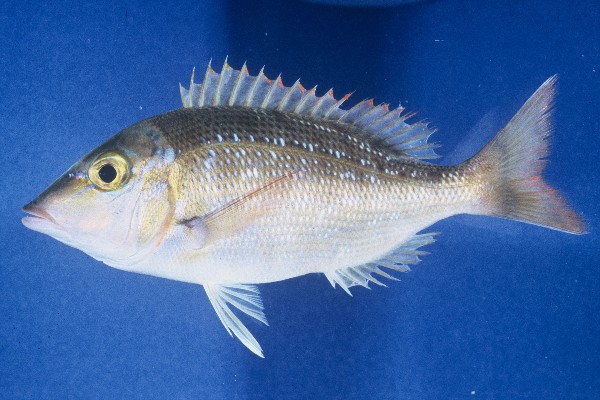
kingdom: Animalia
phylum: Chordata
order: Perciformes
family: Lethrinidae
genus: Lethrinus
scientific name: Lethrinus nebulosus
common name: Spangled emperor
